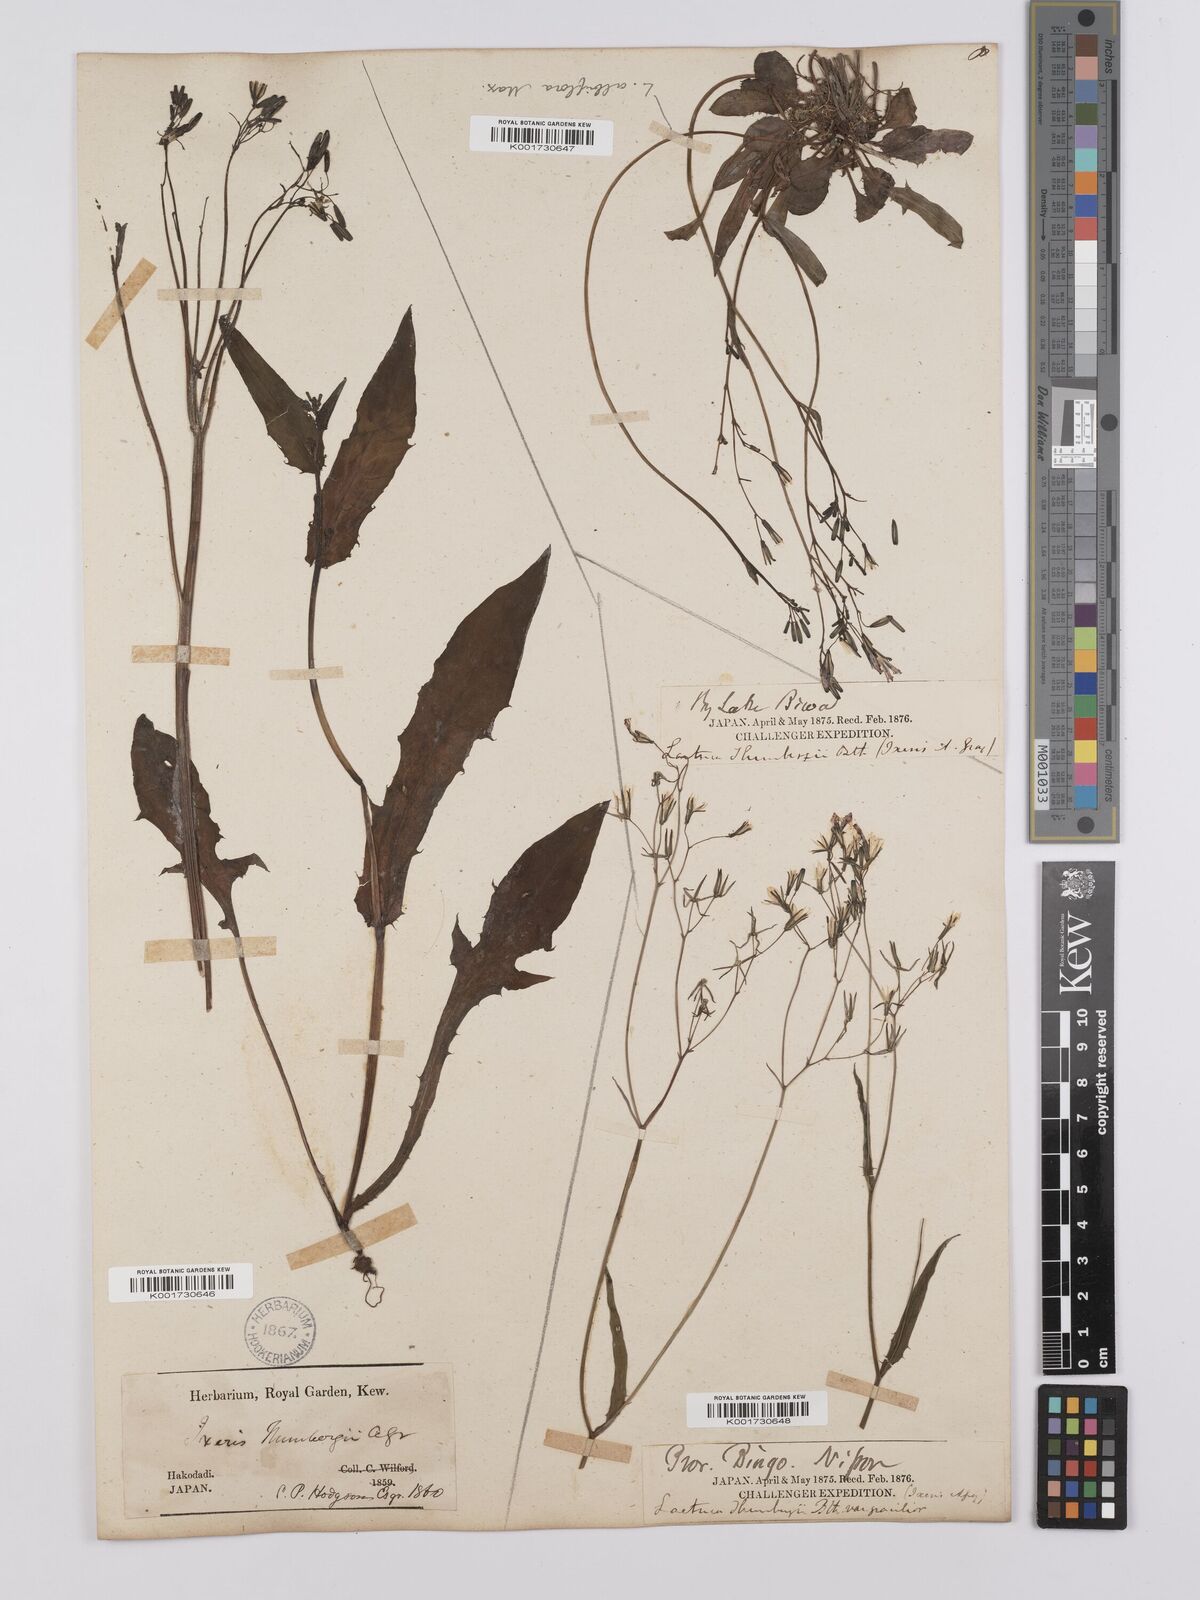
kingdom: Plantae
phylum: Tracheophyta
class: Magnoliopsida
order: Asterales
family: Asteraceae
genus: Ixeridium
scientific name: Ixeridium dentatum
